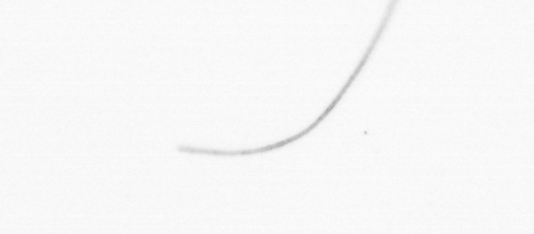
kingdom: Chromista
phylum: Ochrophyta
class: Bacillariophyceae
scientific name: Bacillariophyceae
